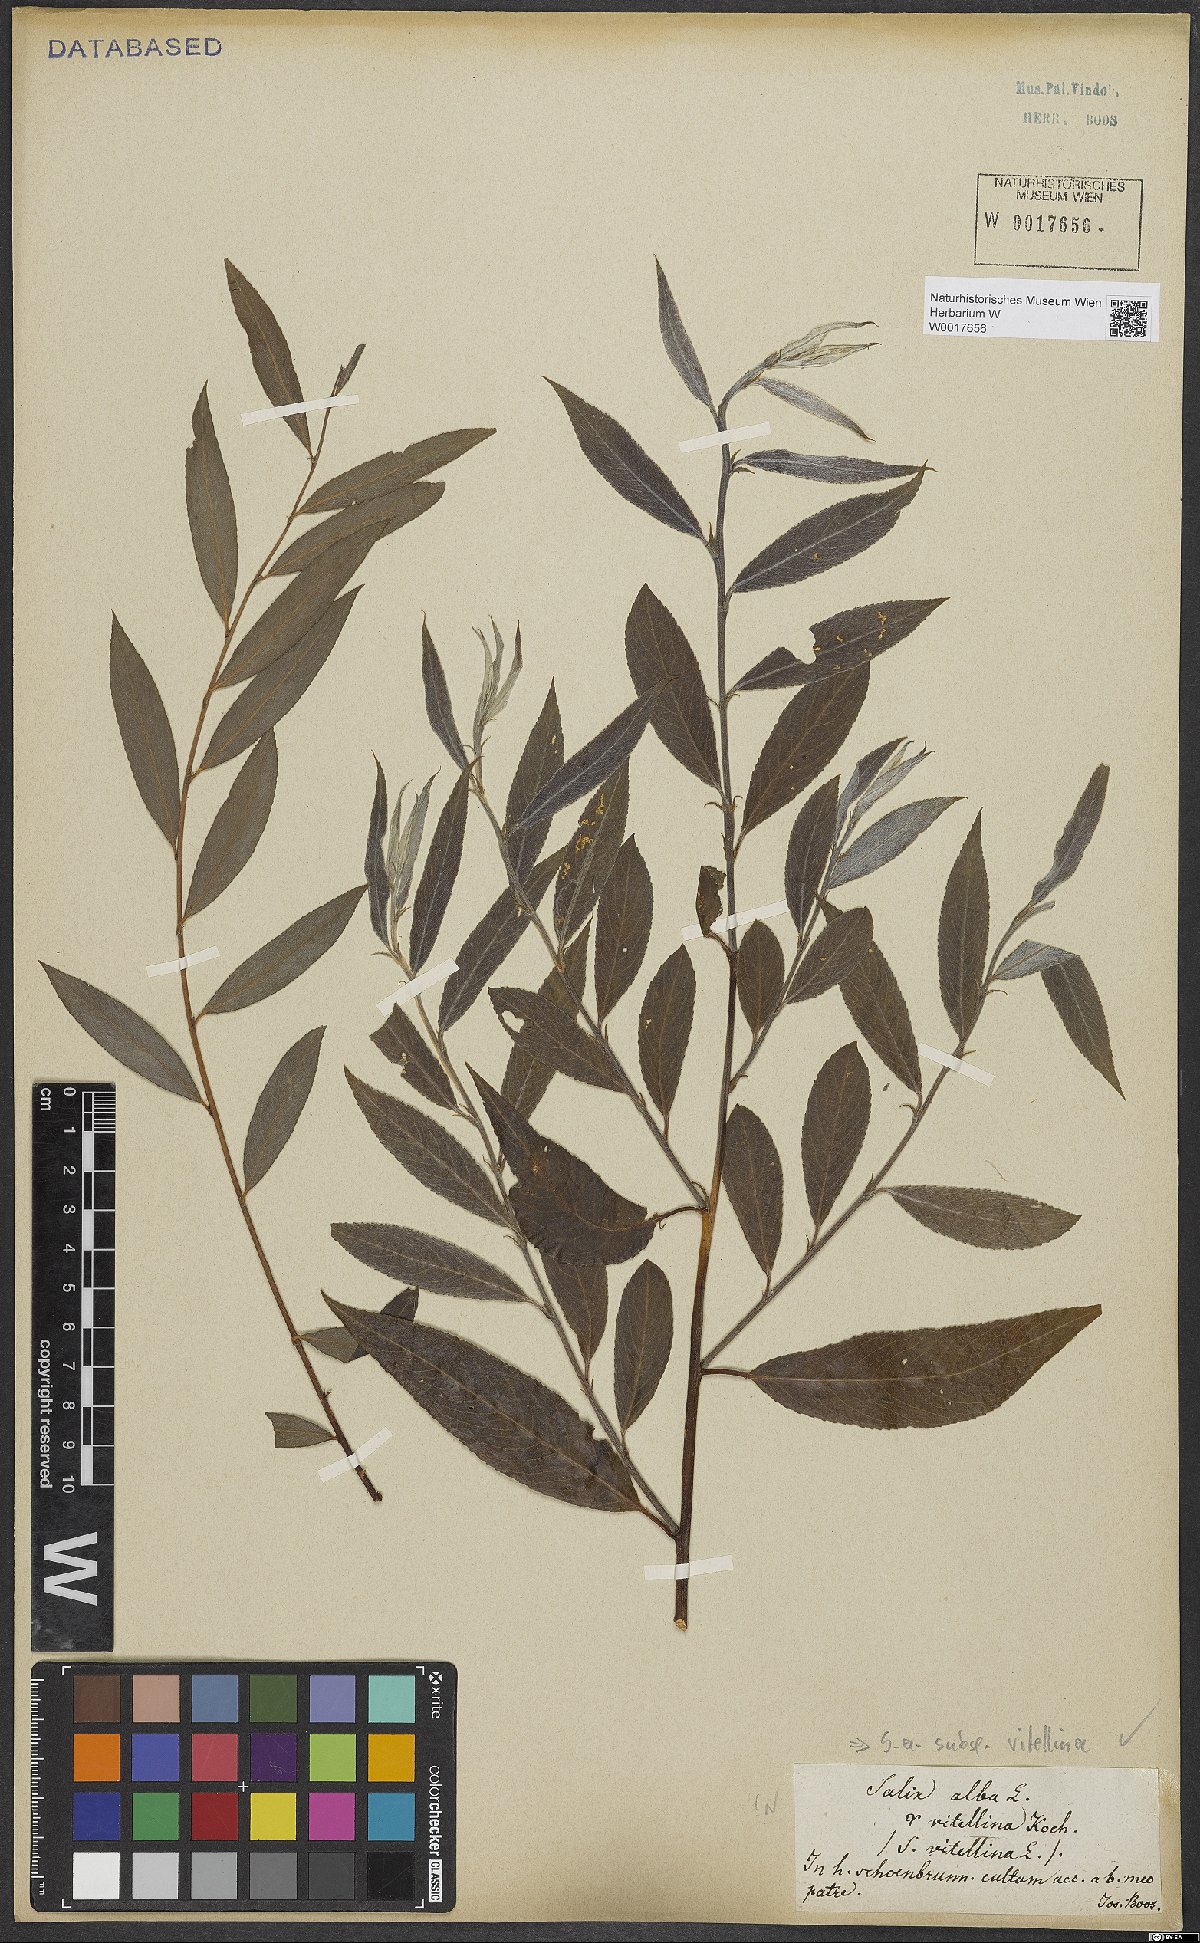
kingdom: Plantae
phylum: Tracheophyta
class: Magnoliopsida
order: Malpighiales
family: Salicaceae
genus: Salix
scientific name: Salix alba
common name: White willow
